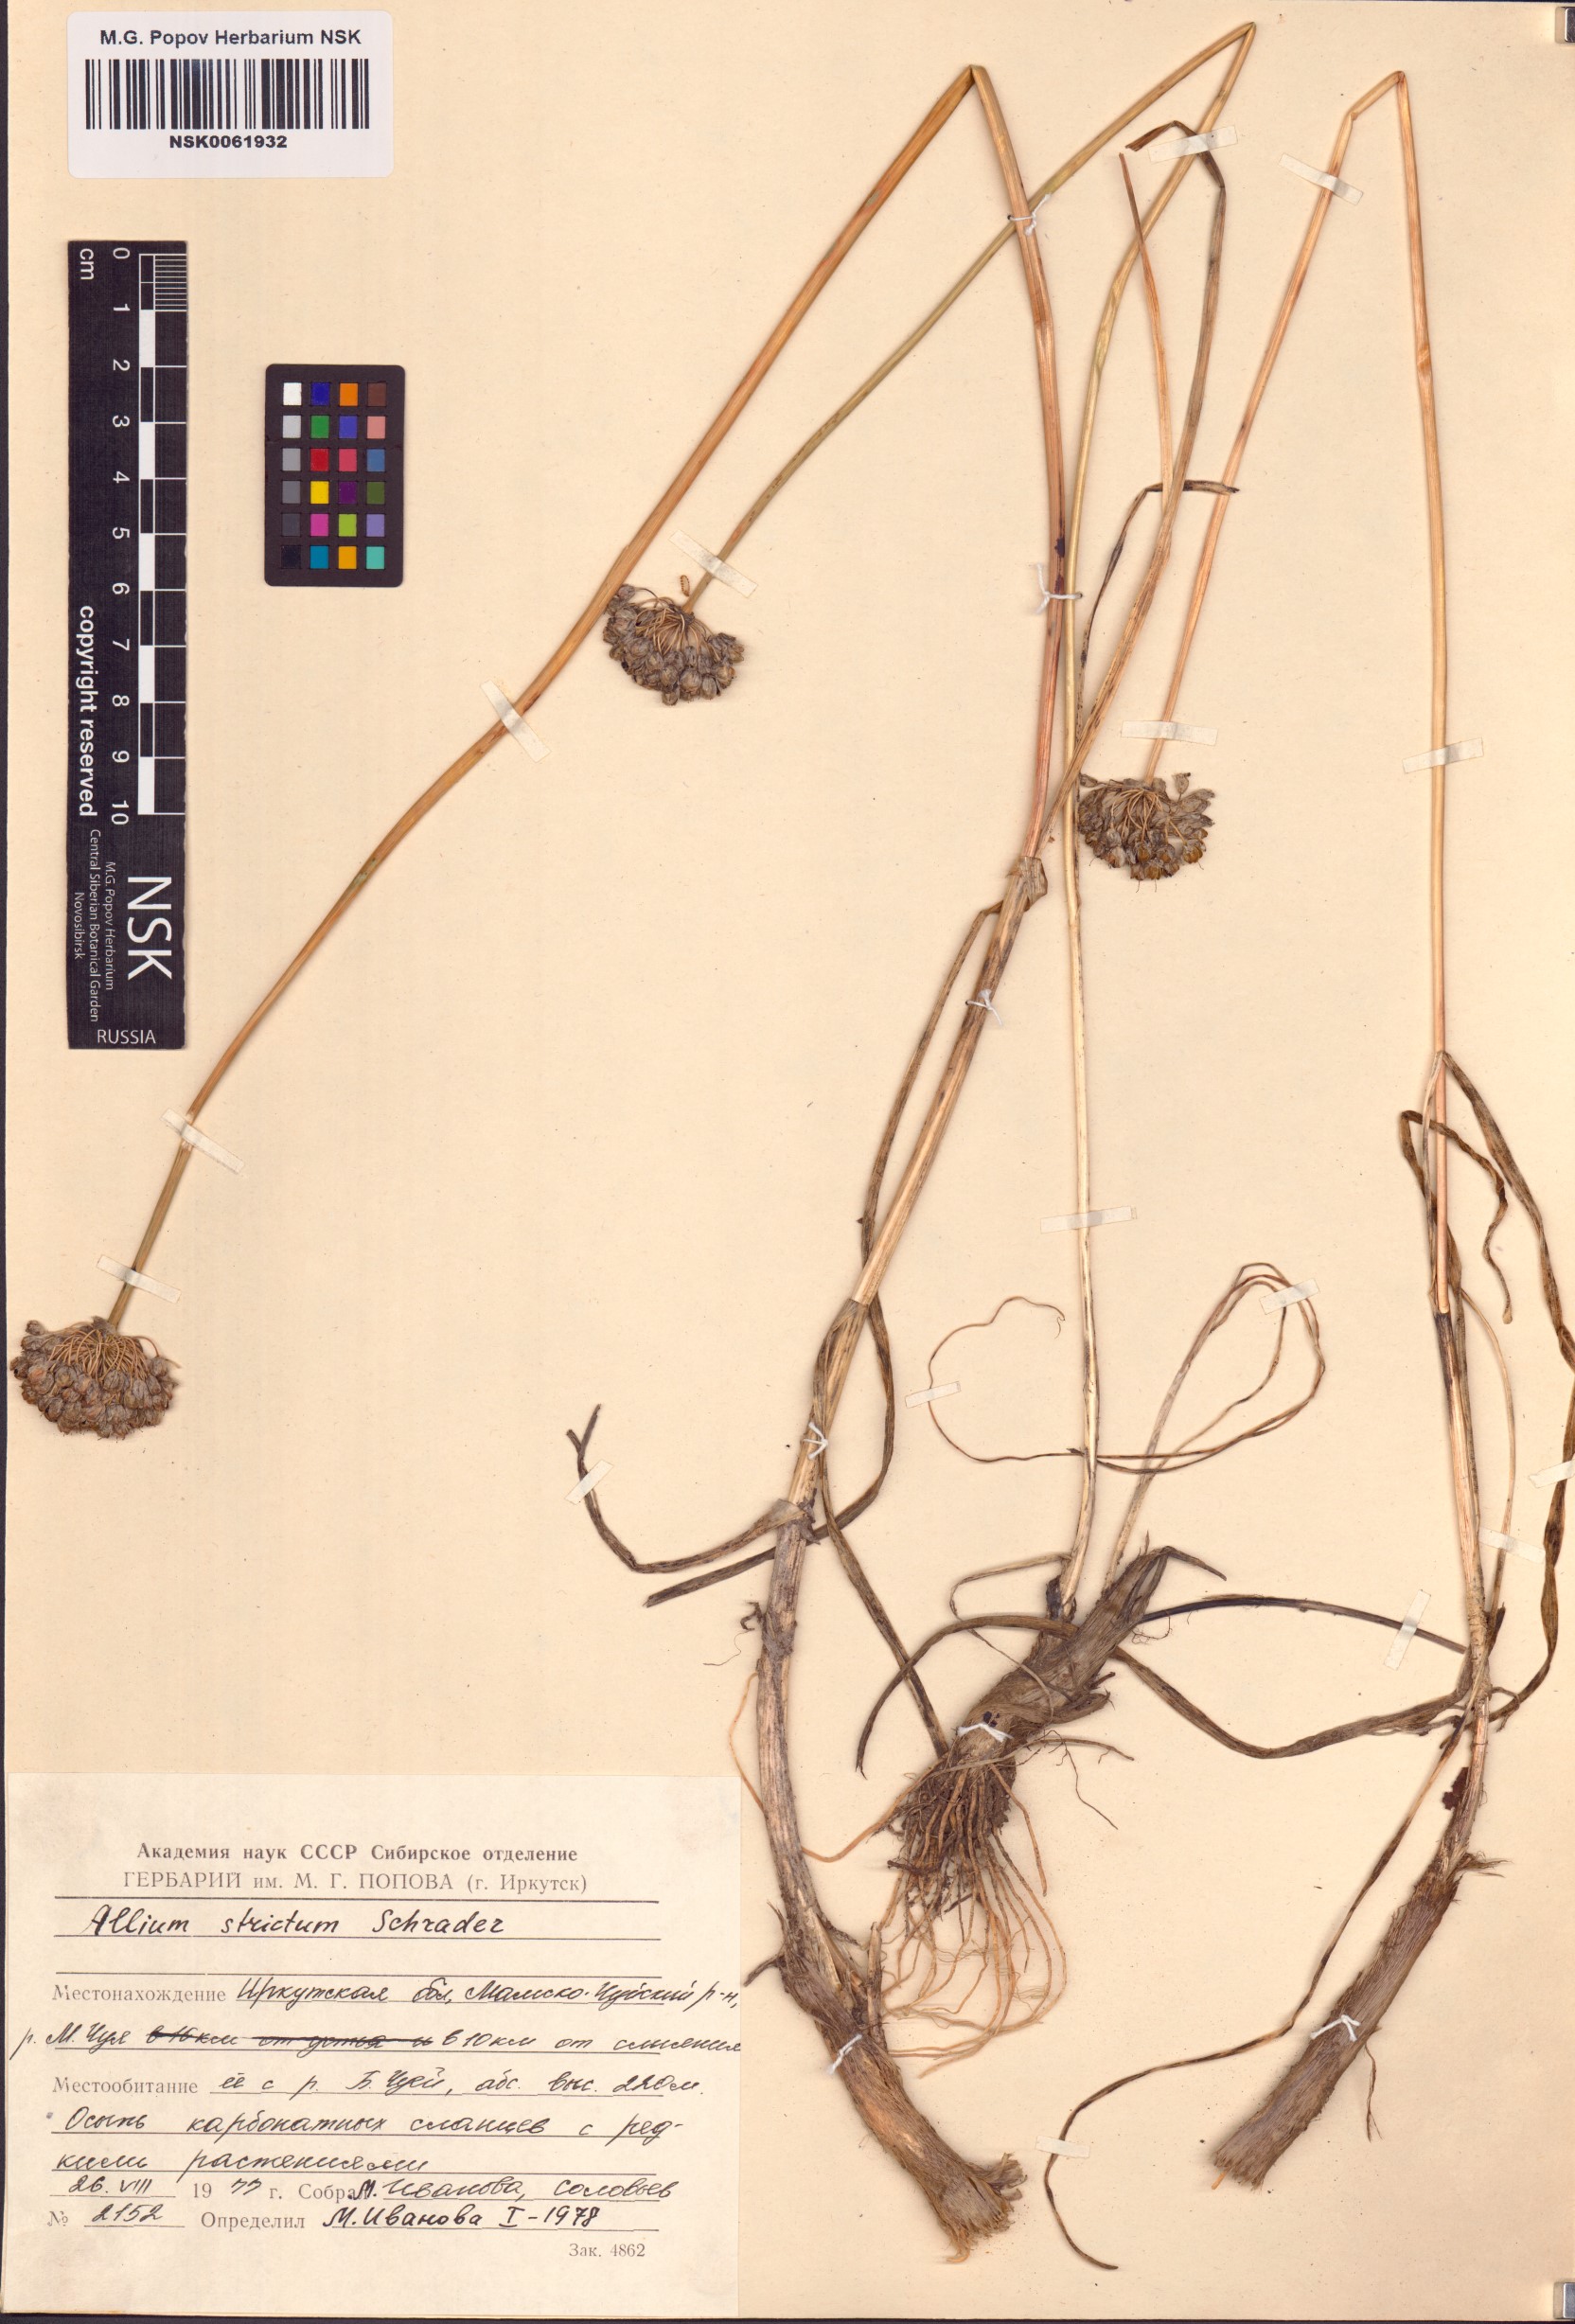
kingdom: Plantae
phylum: Tracheophyta
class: Liliopsida
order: Asparagales
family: Amaryllidaceae
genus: Allium
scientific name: Allium strictum
